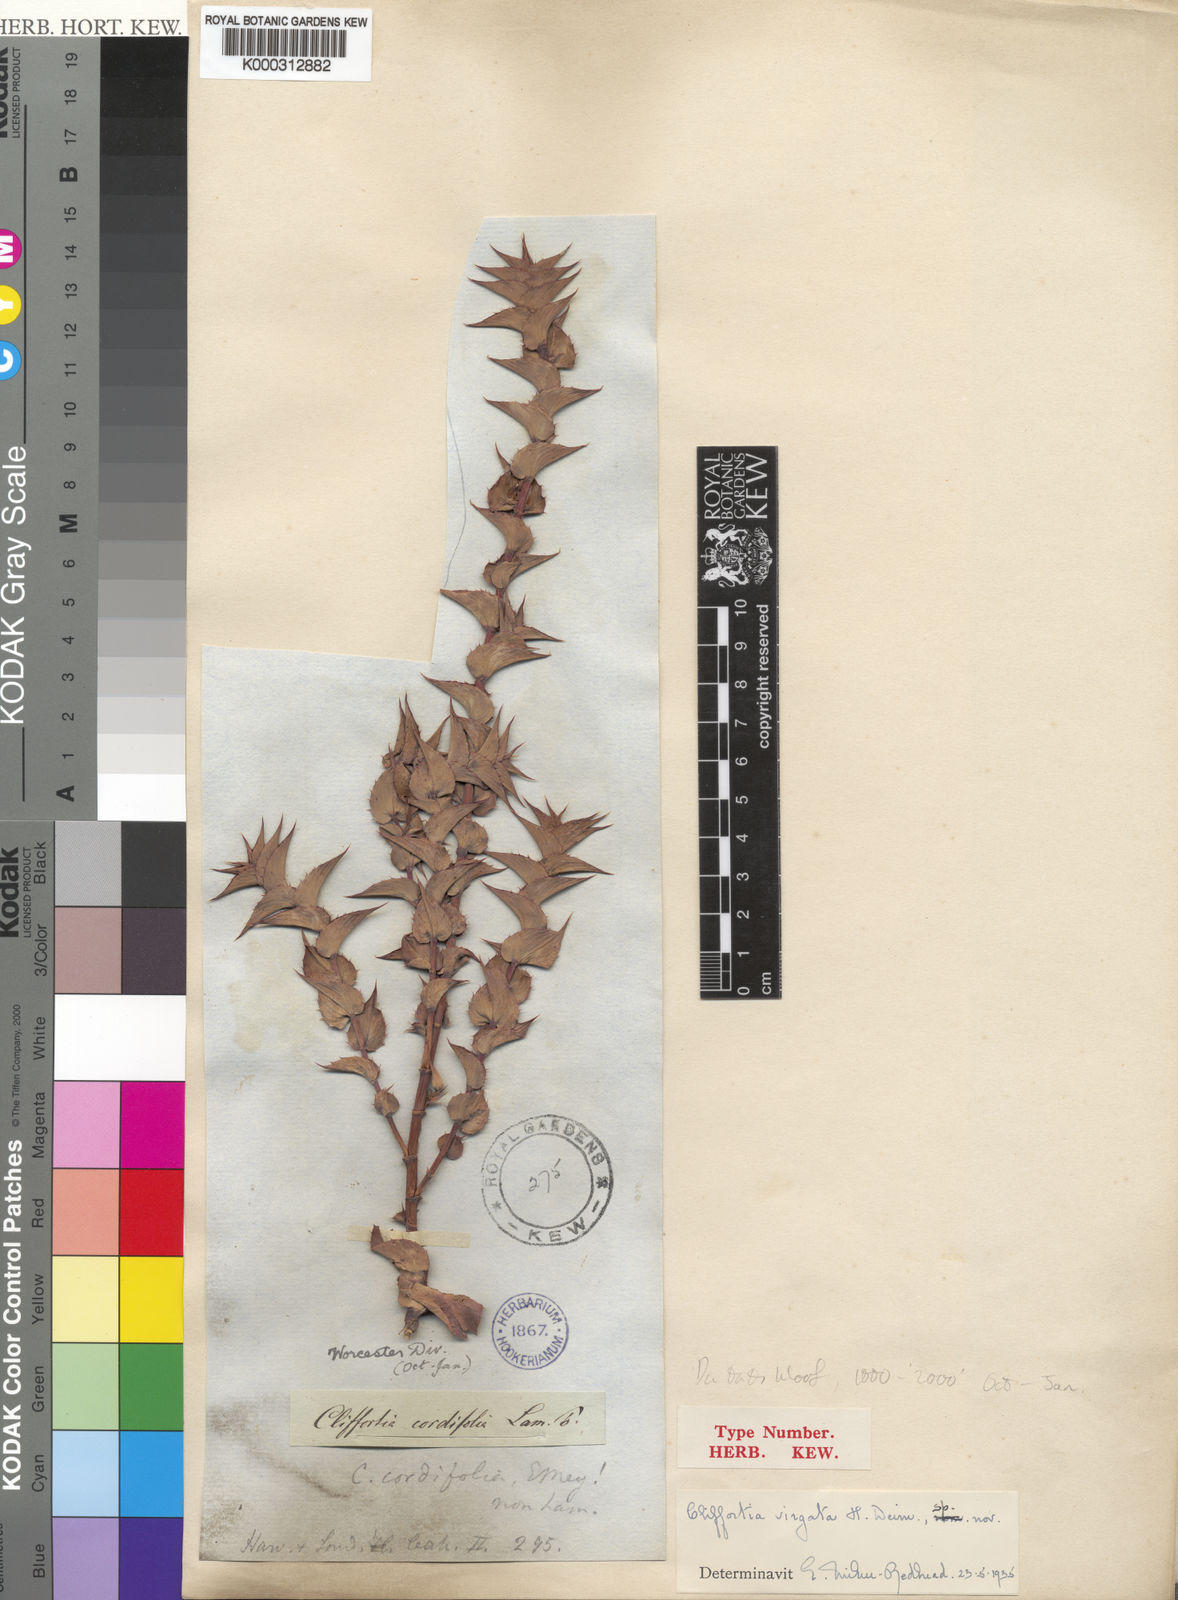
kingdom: Plantae
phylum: Tracheophyta
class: Magnoliopsida
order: Rosales
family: Rosaceae
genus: Cliffortia
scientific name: Cliffortia virgata
